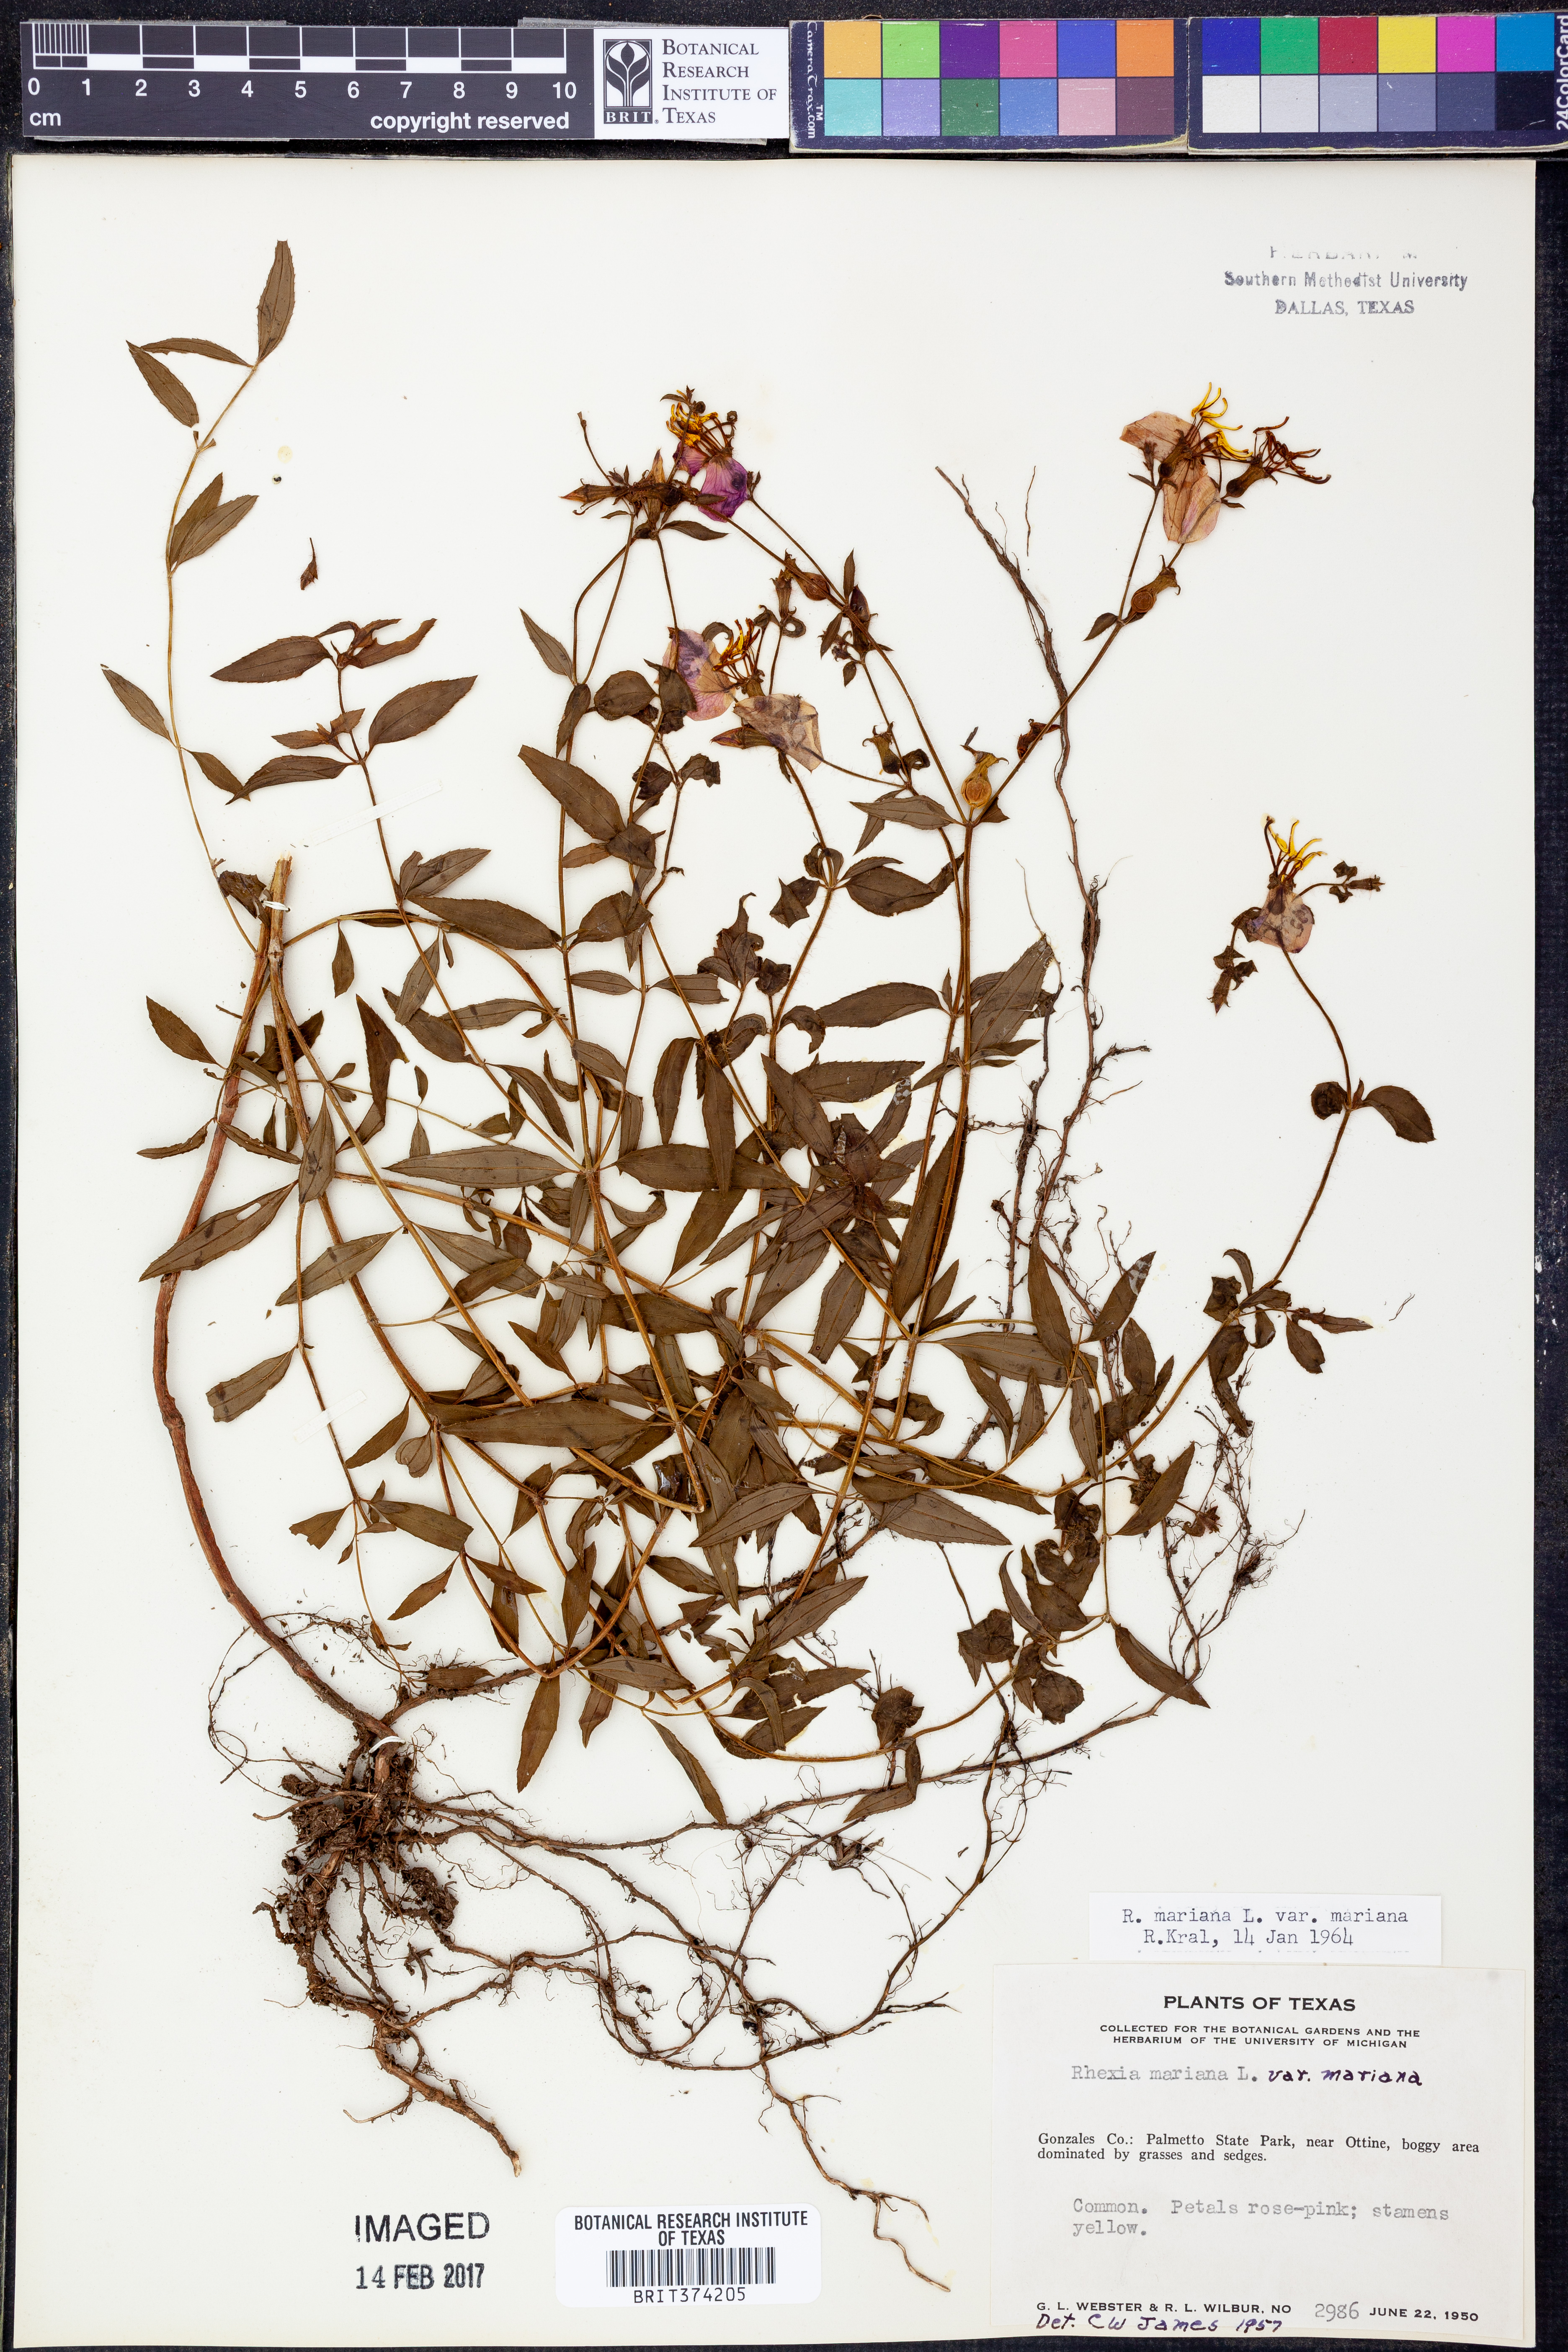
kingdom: Plantae
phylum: Tracheophyta
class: Magnoliopsida
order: Myrtales
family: Melastomataceae
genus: Rhexia
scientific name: Rhexia mariana
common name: Dull meadow-pitcher
